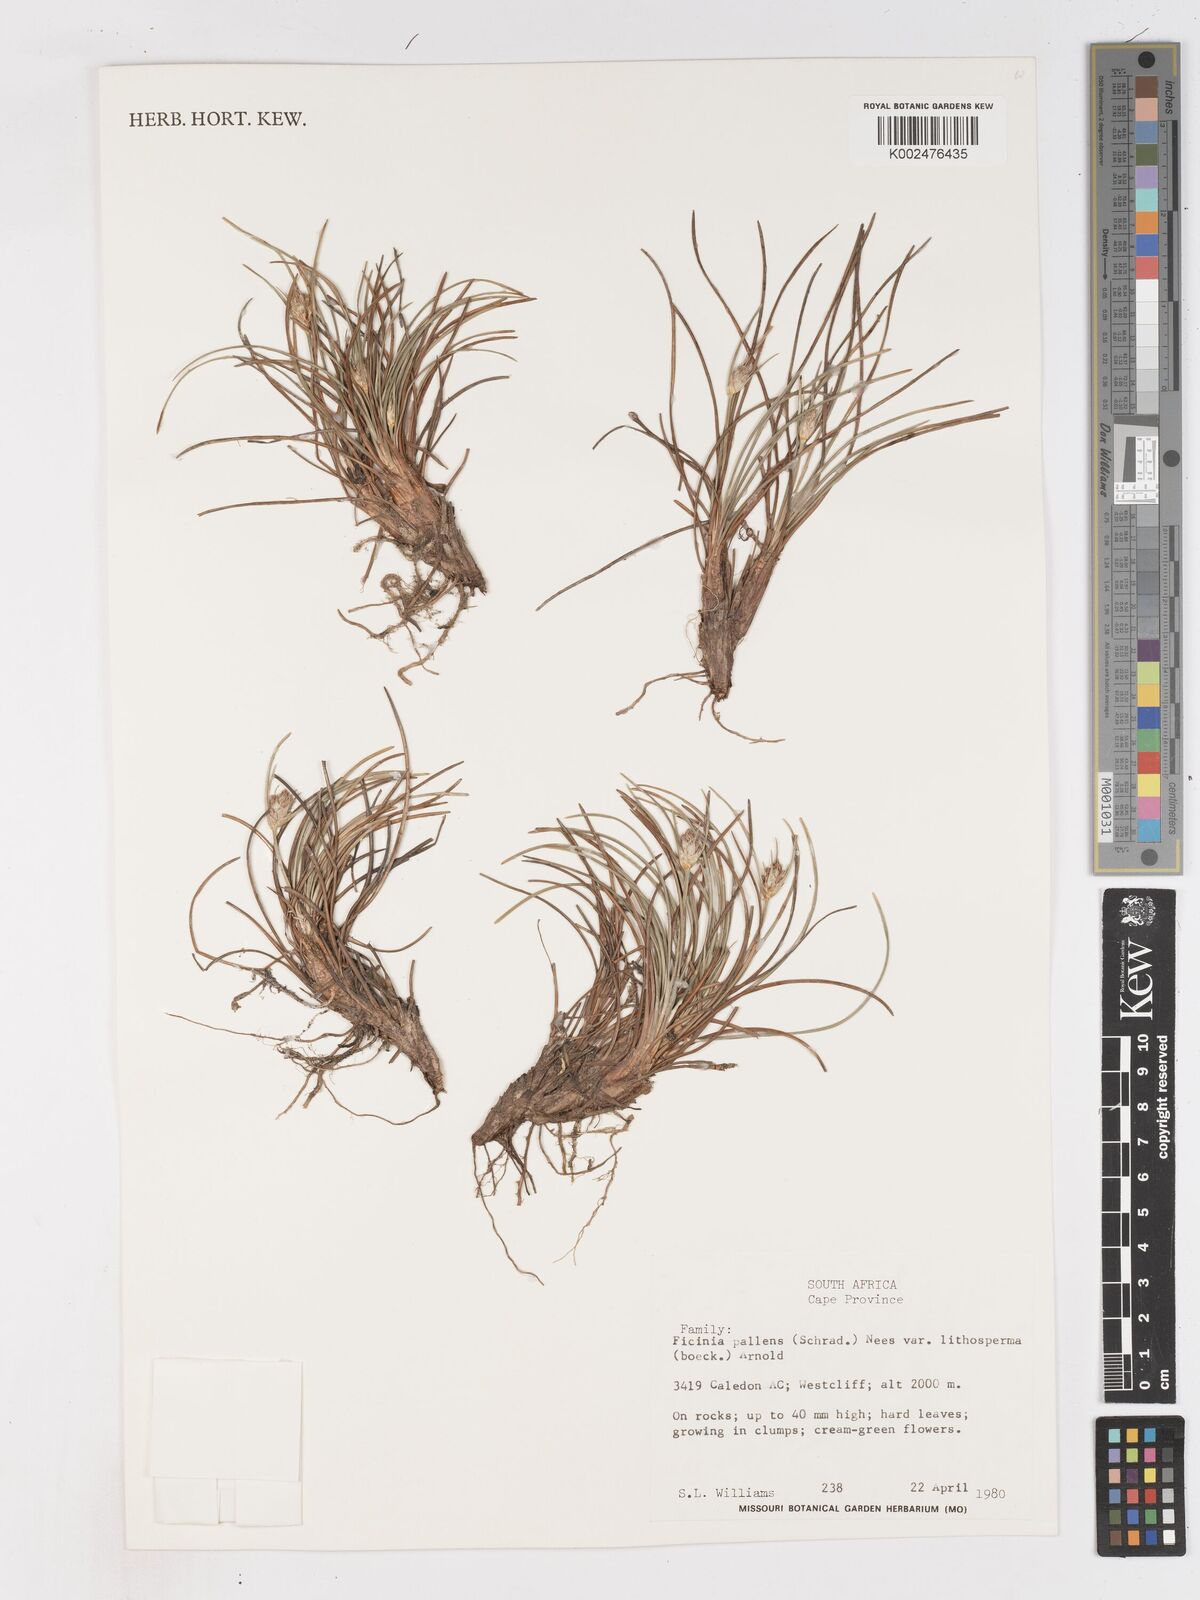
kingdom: Plantae
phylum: Tracheophyta
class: Liliopsida
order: Poales
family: Cyperaceae
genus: Ficinia
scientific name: Ficinia pallens
